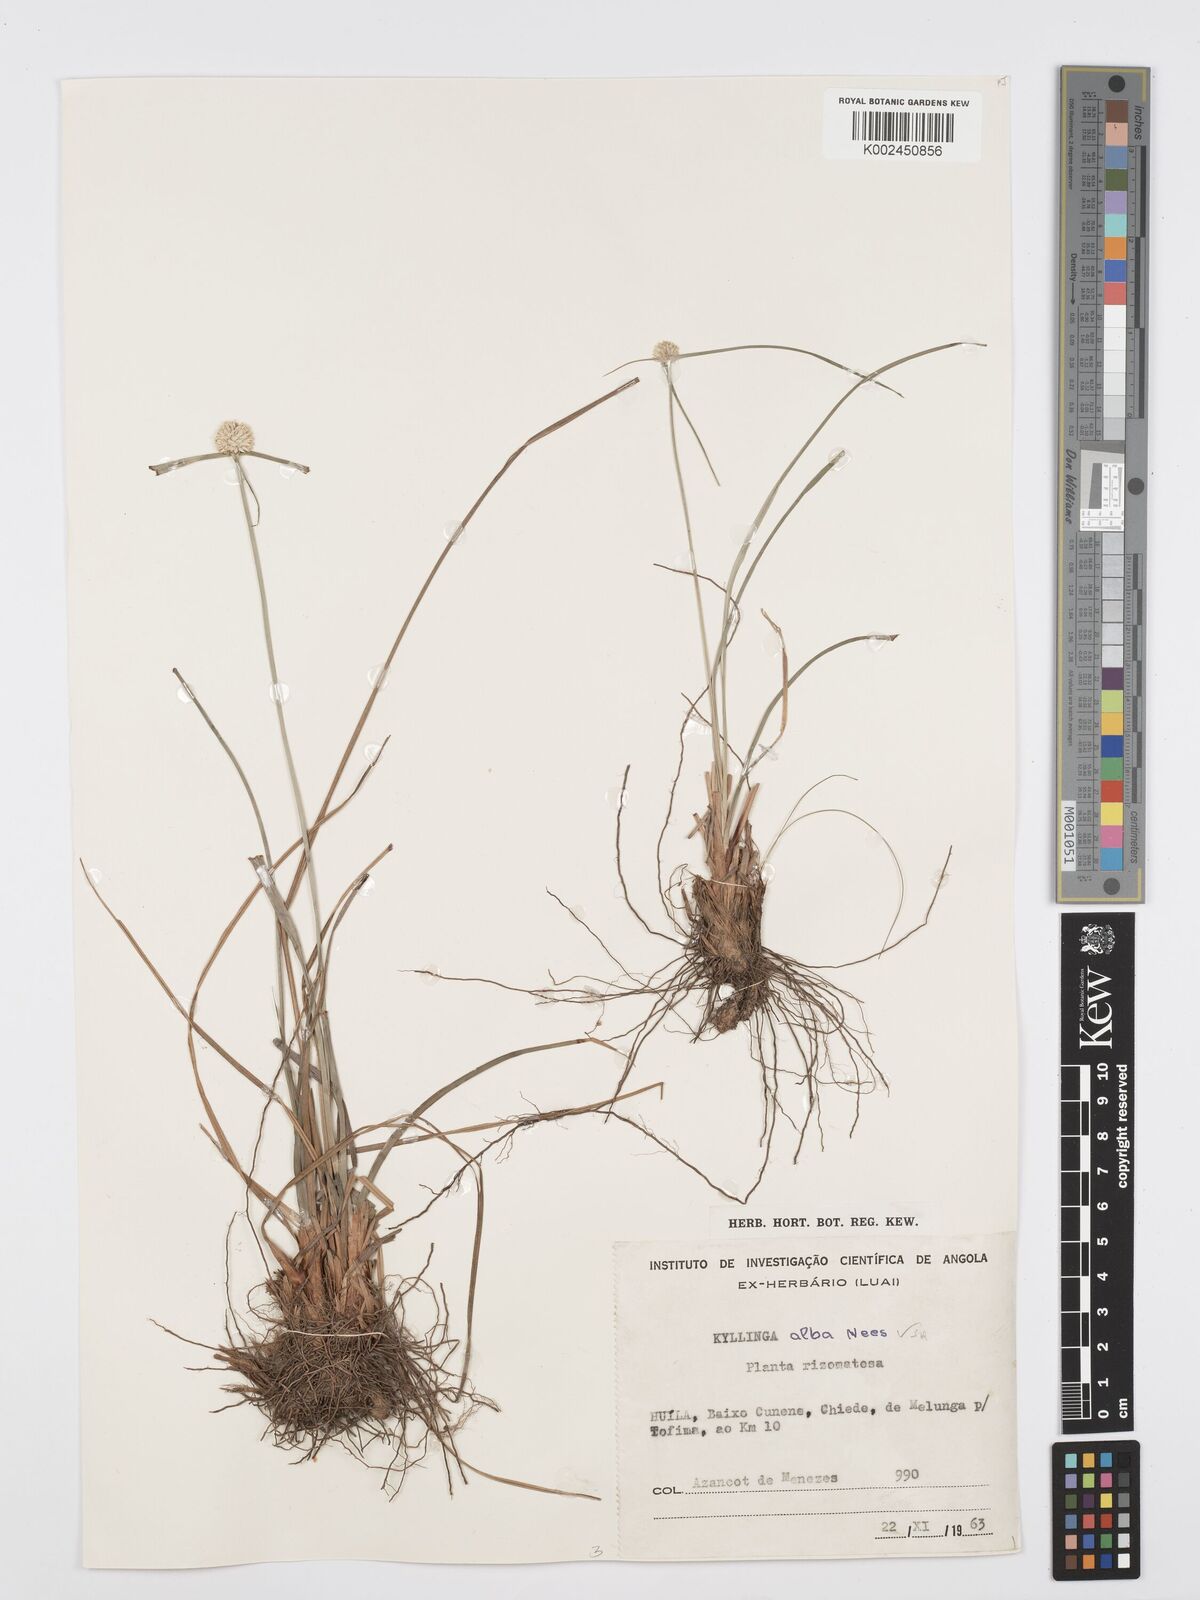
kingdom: Plantae
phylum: Tracheophyta
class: Liliopsida
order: Poales
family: Cyperaceae
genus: Cyperus
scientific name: Cyperus
